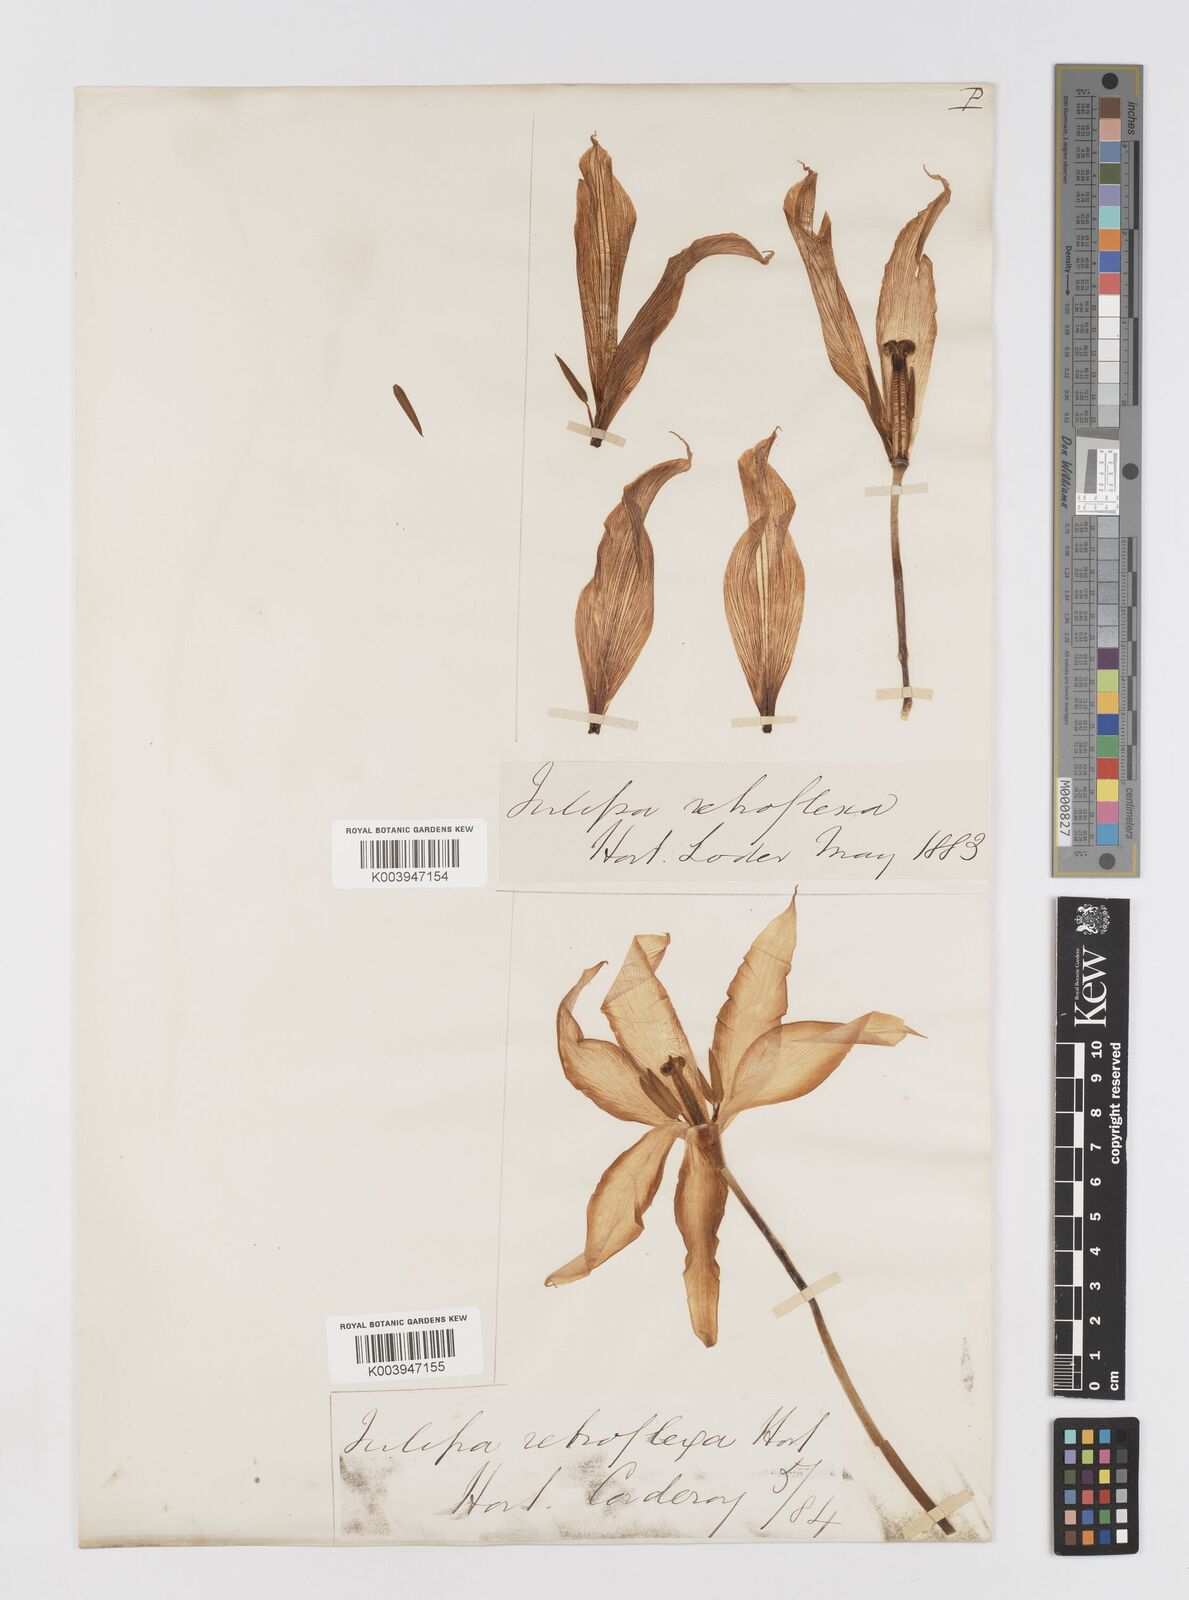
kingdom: Plantae
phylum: Tracheophyta
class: Liliopsida
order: Liliales
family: Liliaceae
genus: Tulipa
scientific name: Tulipa gesneriana
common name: Garden tulip
